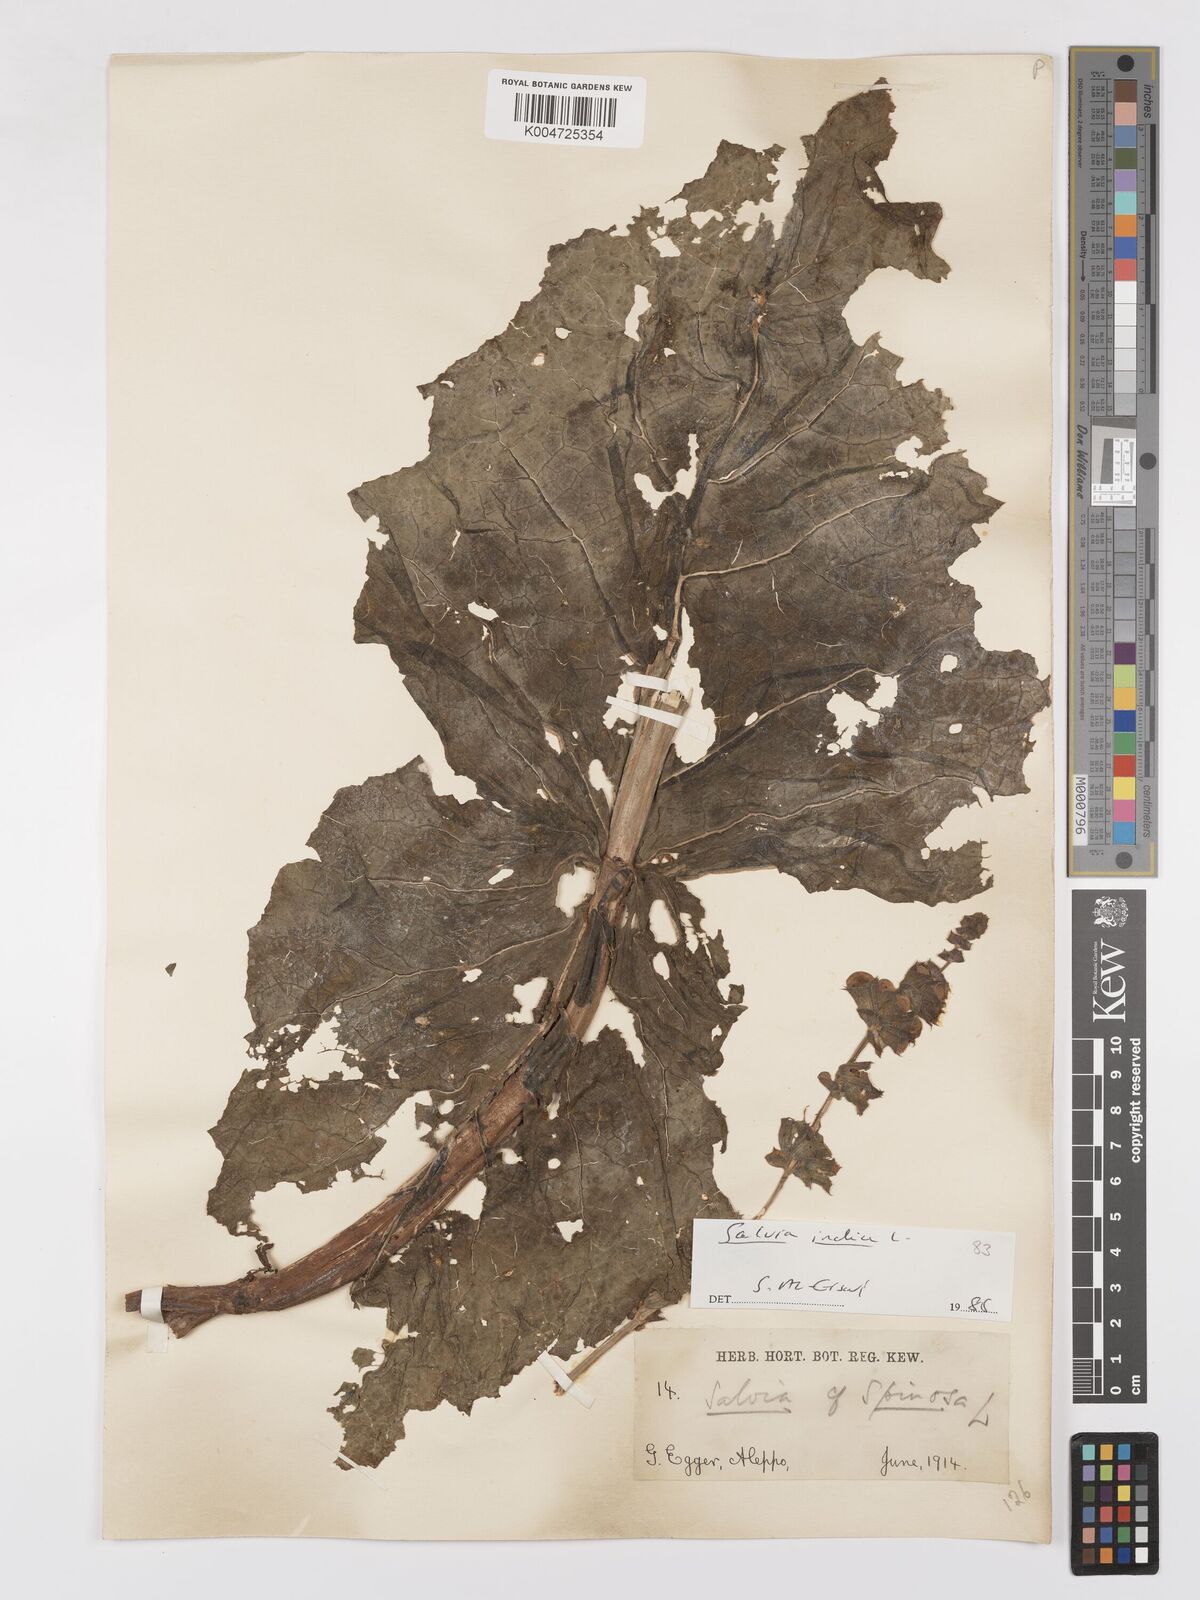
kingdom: Plantae
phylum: Tracheophyta
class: Magnoliopsida
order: Lamiales
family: Lamiaceae
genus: Salvia
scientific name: Salvia indica
